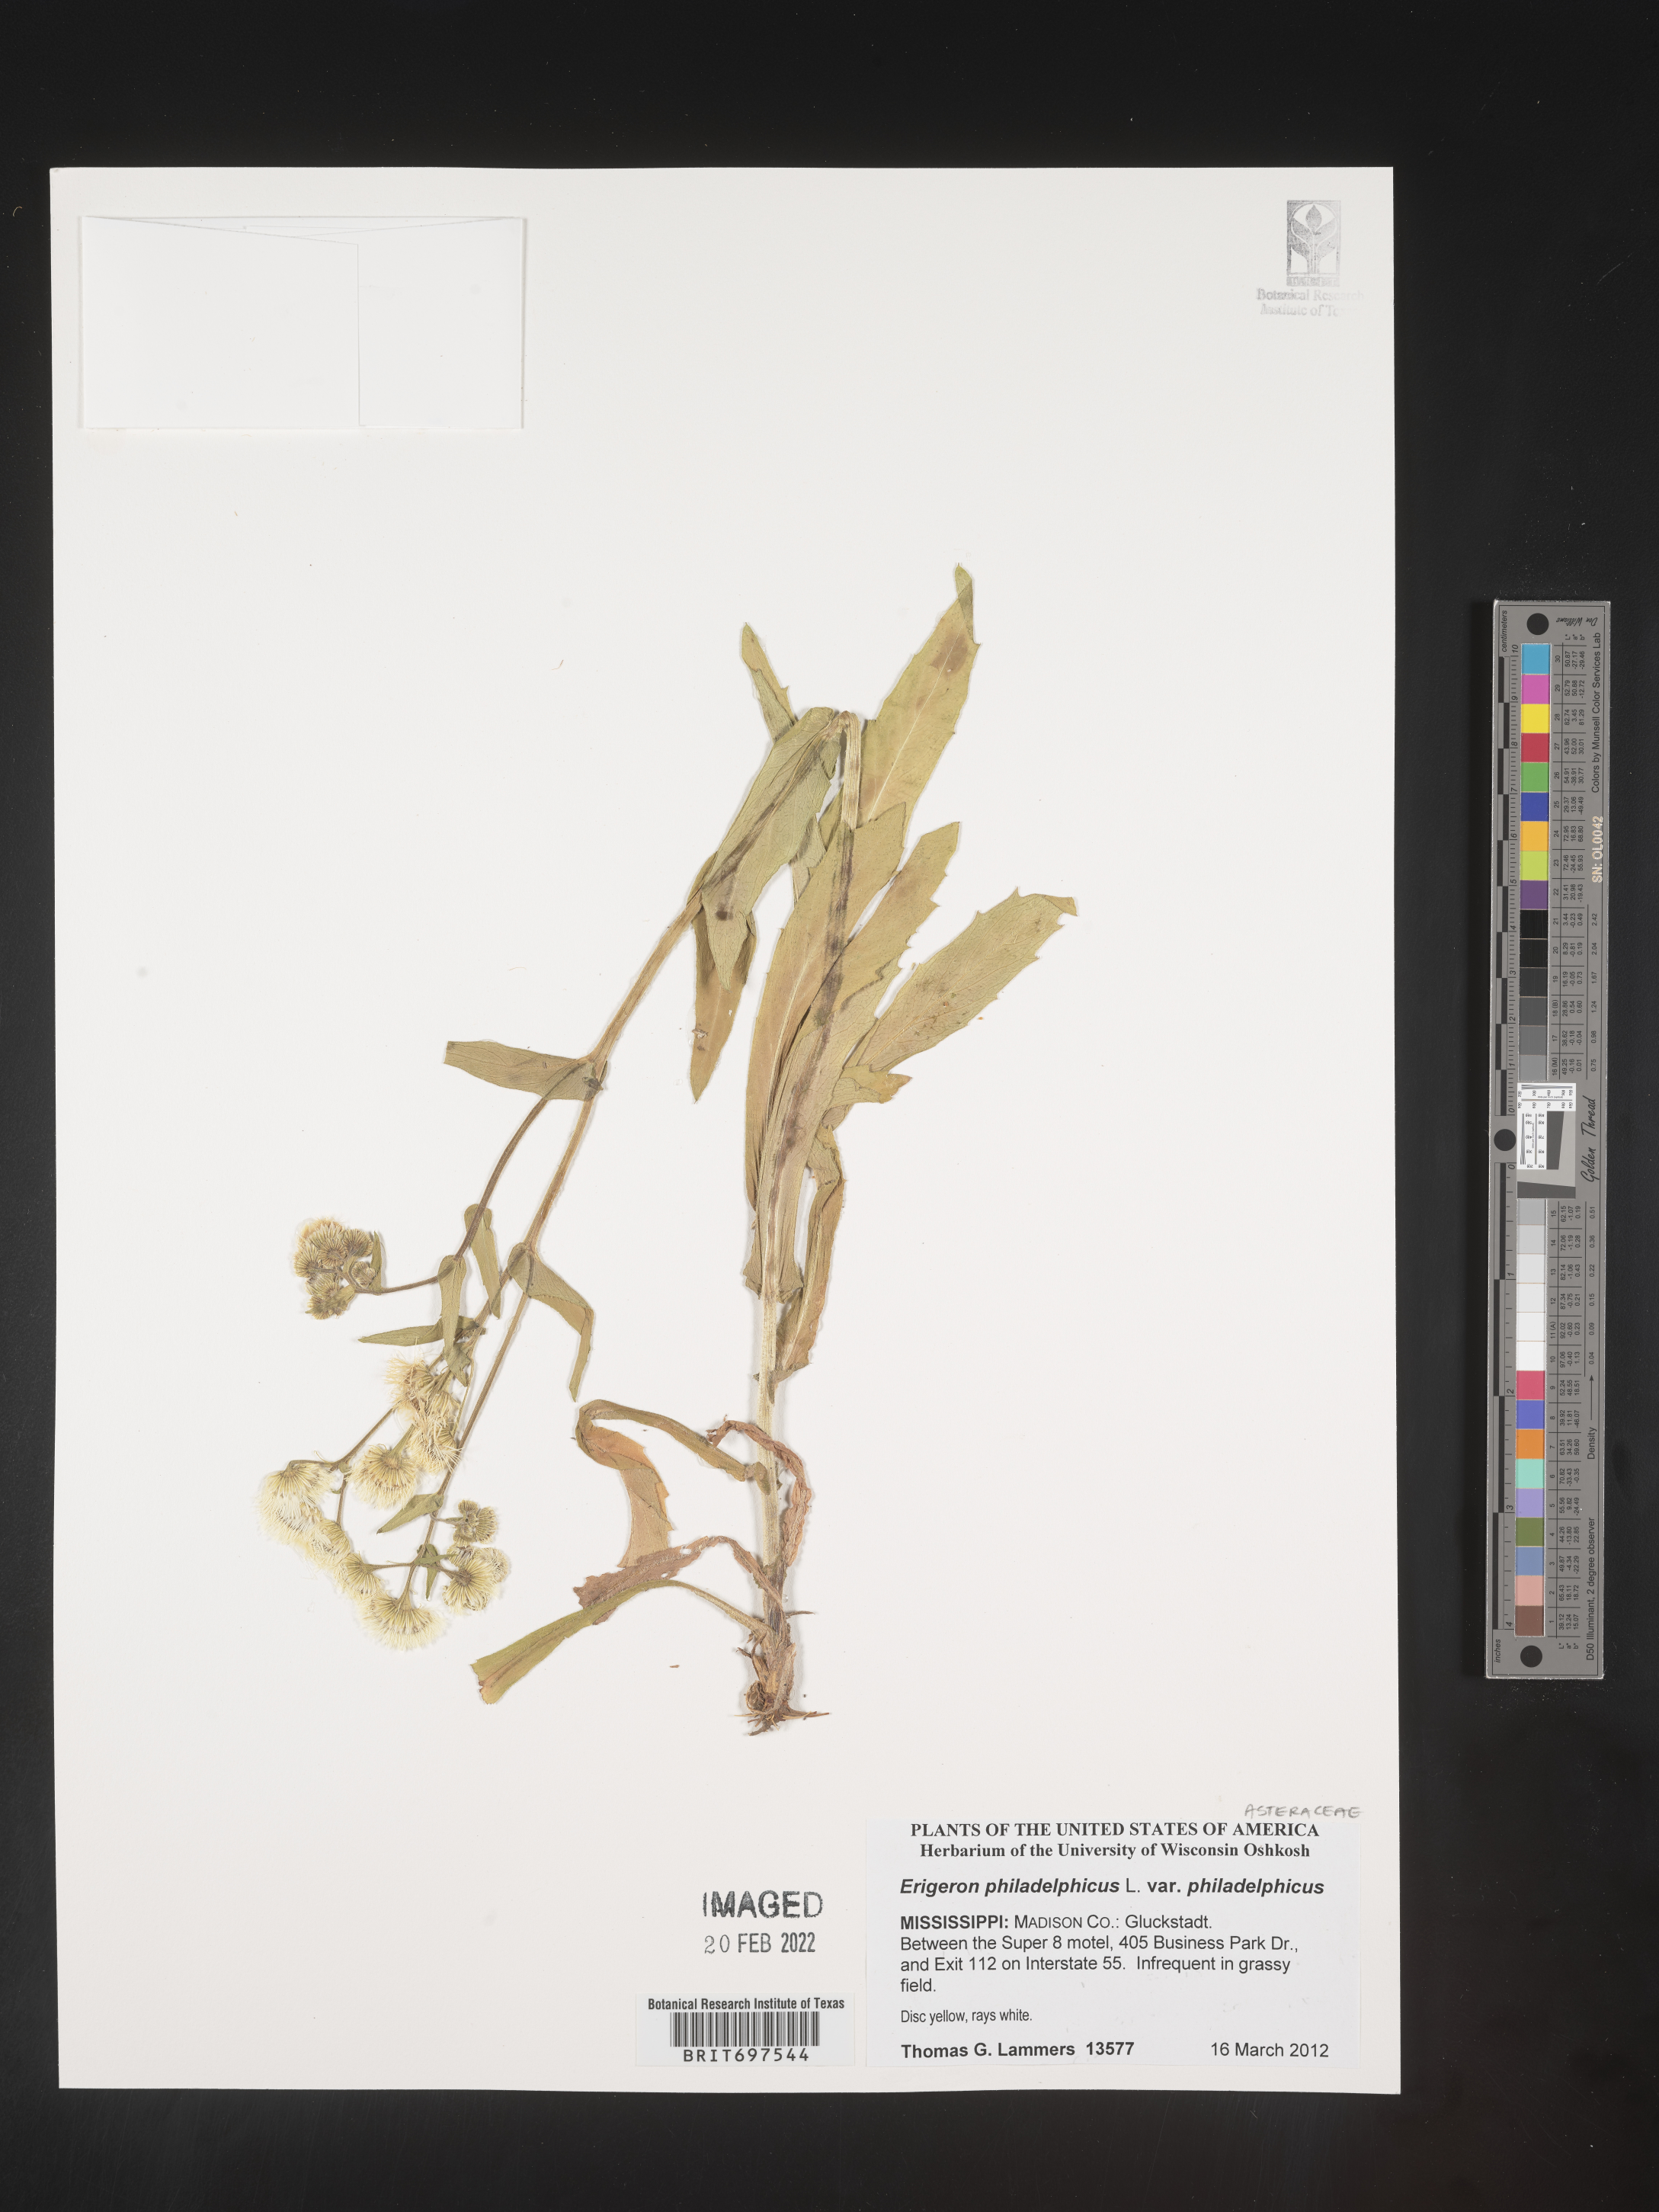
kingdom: Plantae
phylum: Tracheophyta
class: Magnoliopsida
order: Asterales
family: Asteraceae
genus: Erigeron
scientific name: Erigeron philadelphicus
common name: Robin's-plantain
